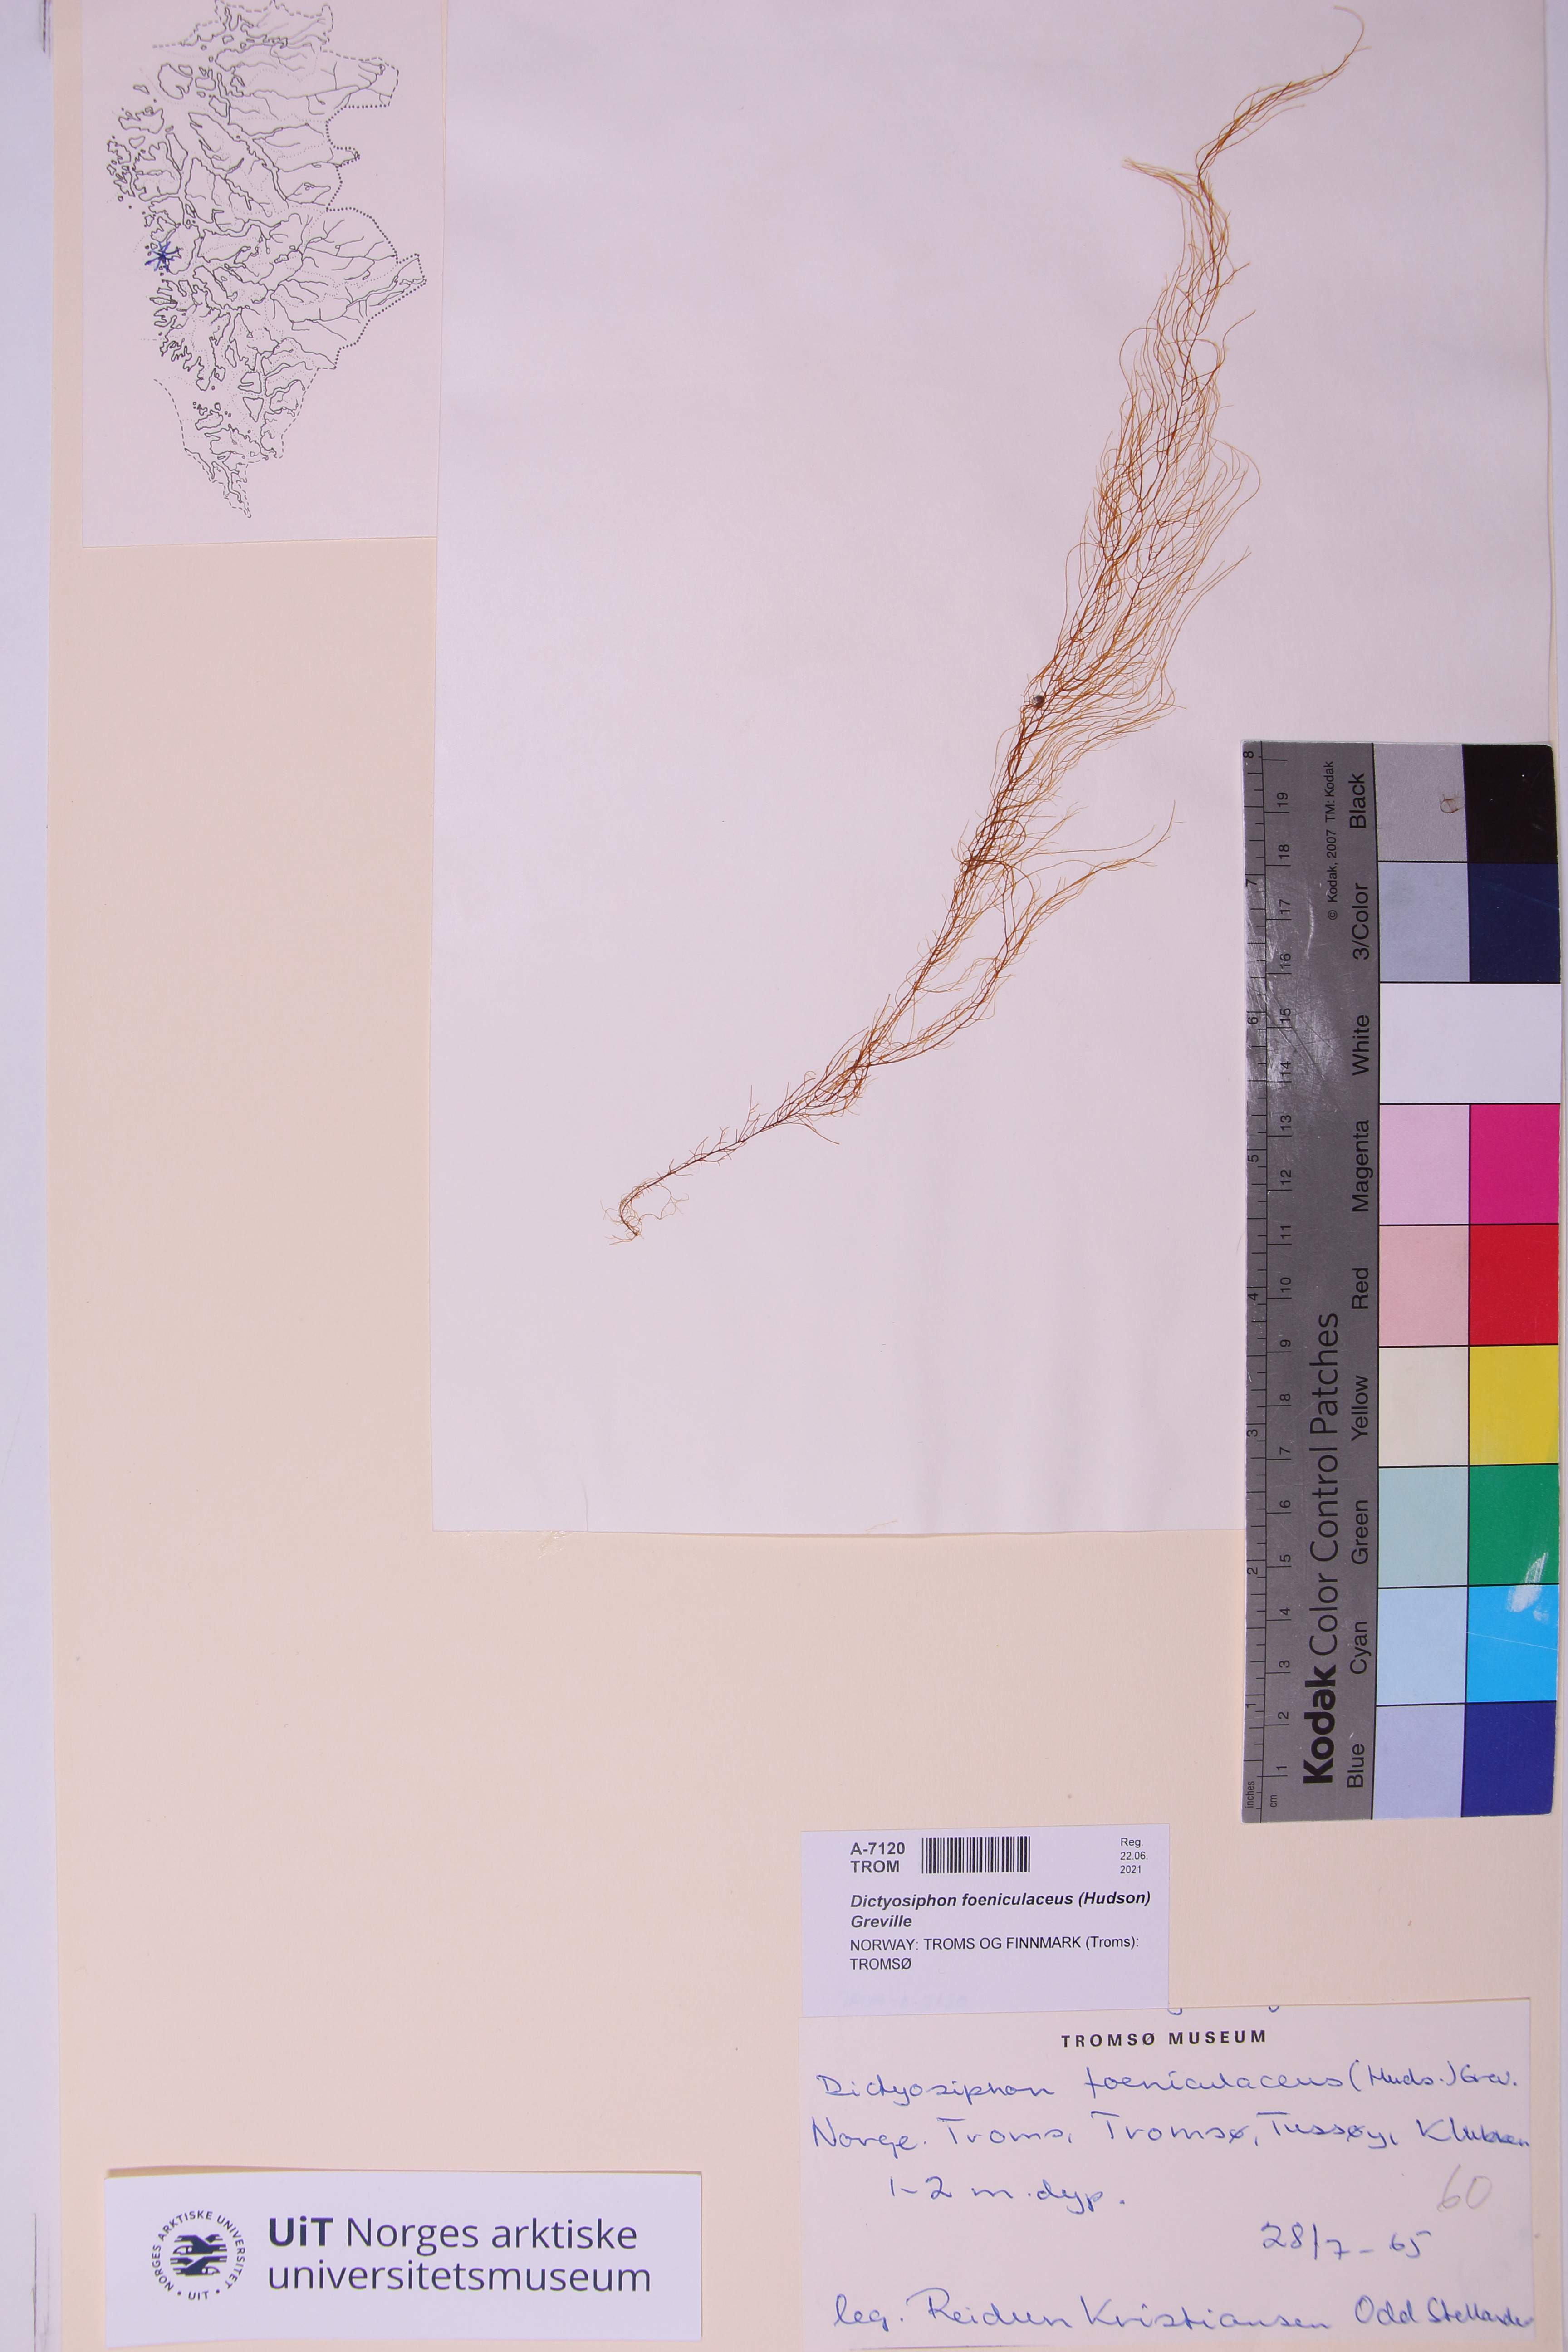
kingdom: Chromista
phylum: Ochrophyta
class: Phaeophyceae
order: Ectocarpales
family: Chordariaceae
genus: Dictyosiphon
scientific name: Dictyosiphon foeniculaceus
